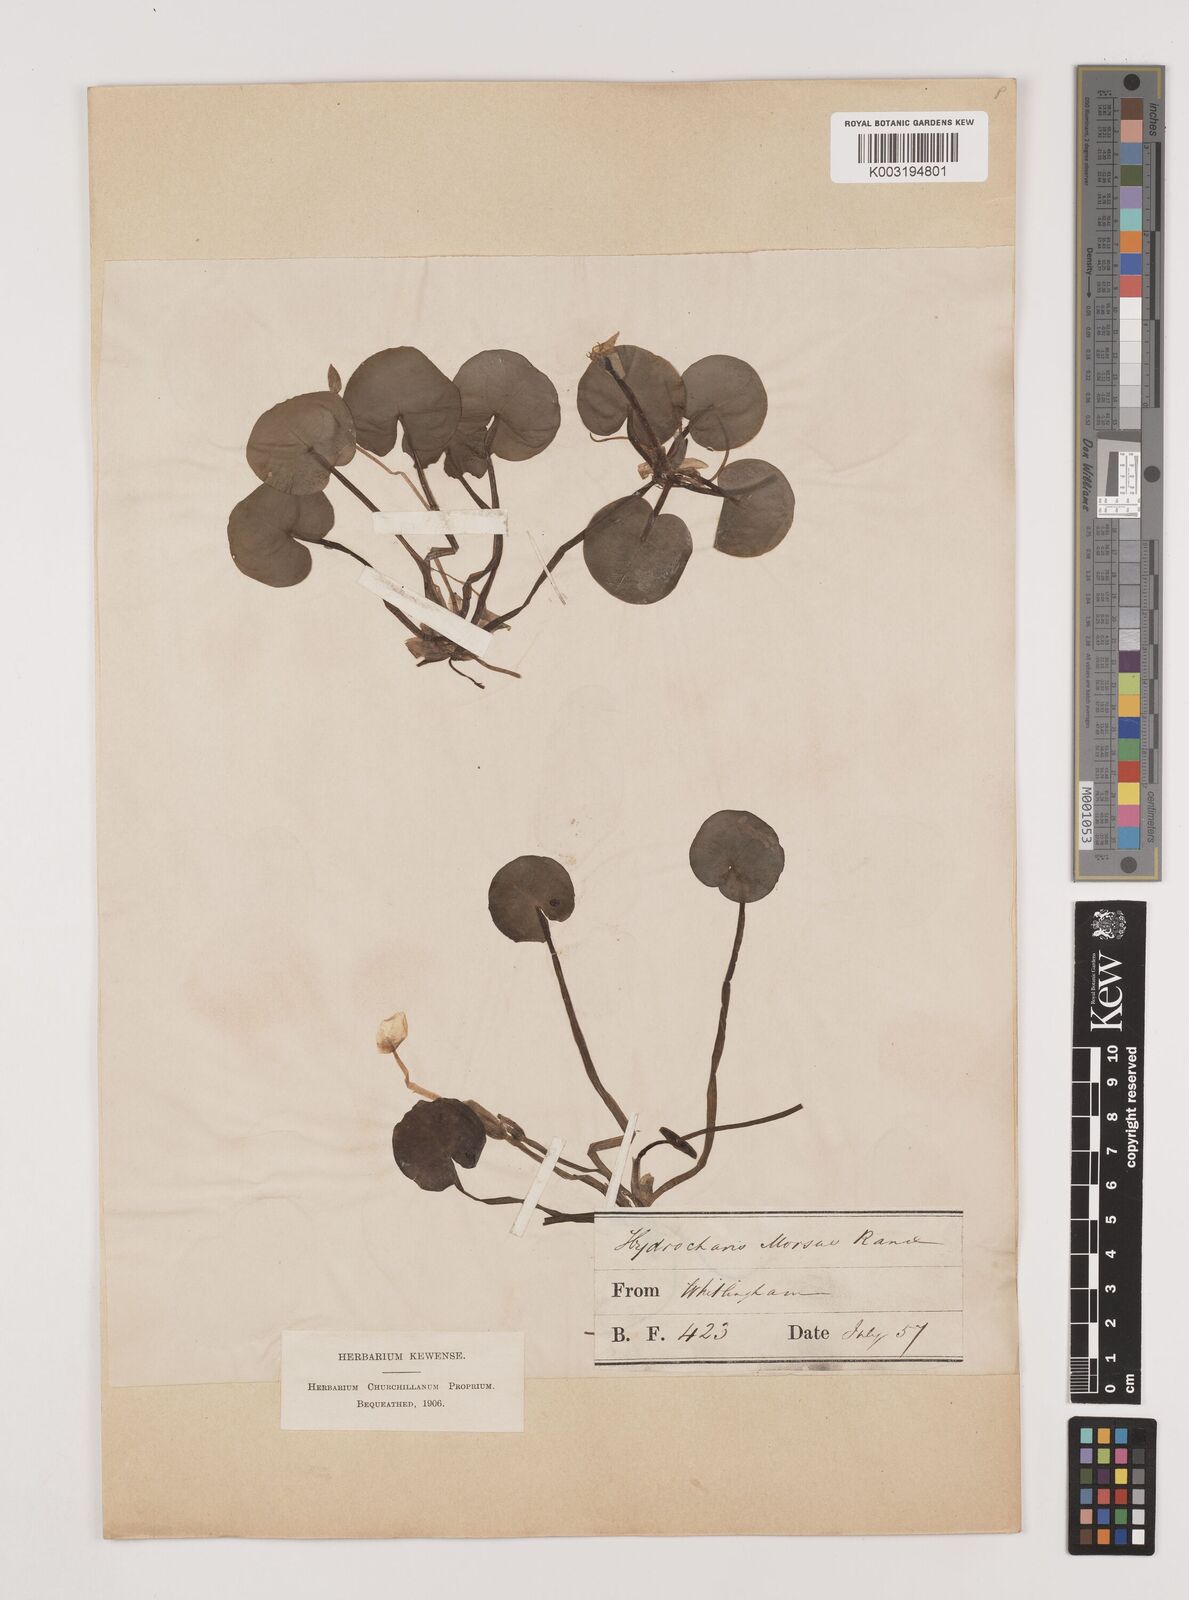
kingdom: Plantae
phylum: Tracheophyta
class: Liliopsida
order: Alismatales
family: Hydrocharitaceae
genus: Hydrocharis
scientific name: Hydrocharis morsus-ranae
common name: Frogbit
